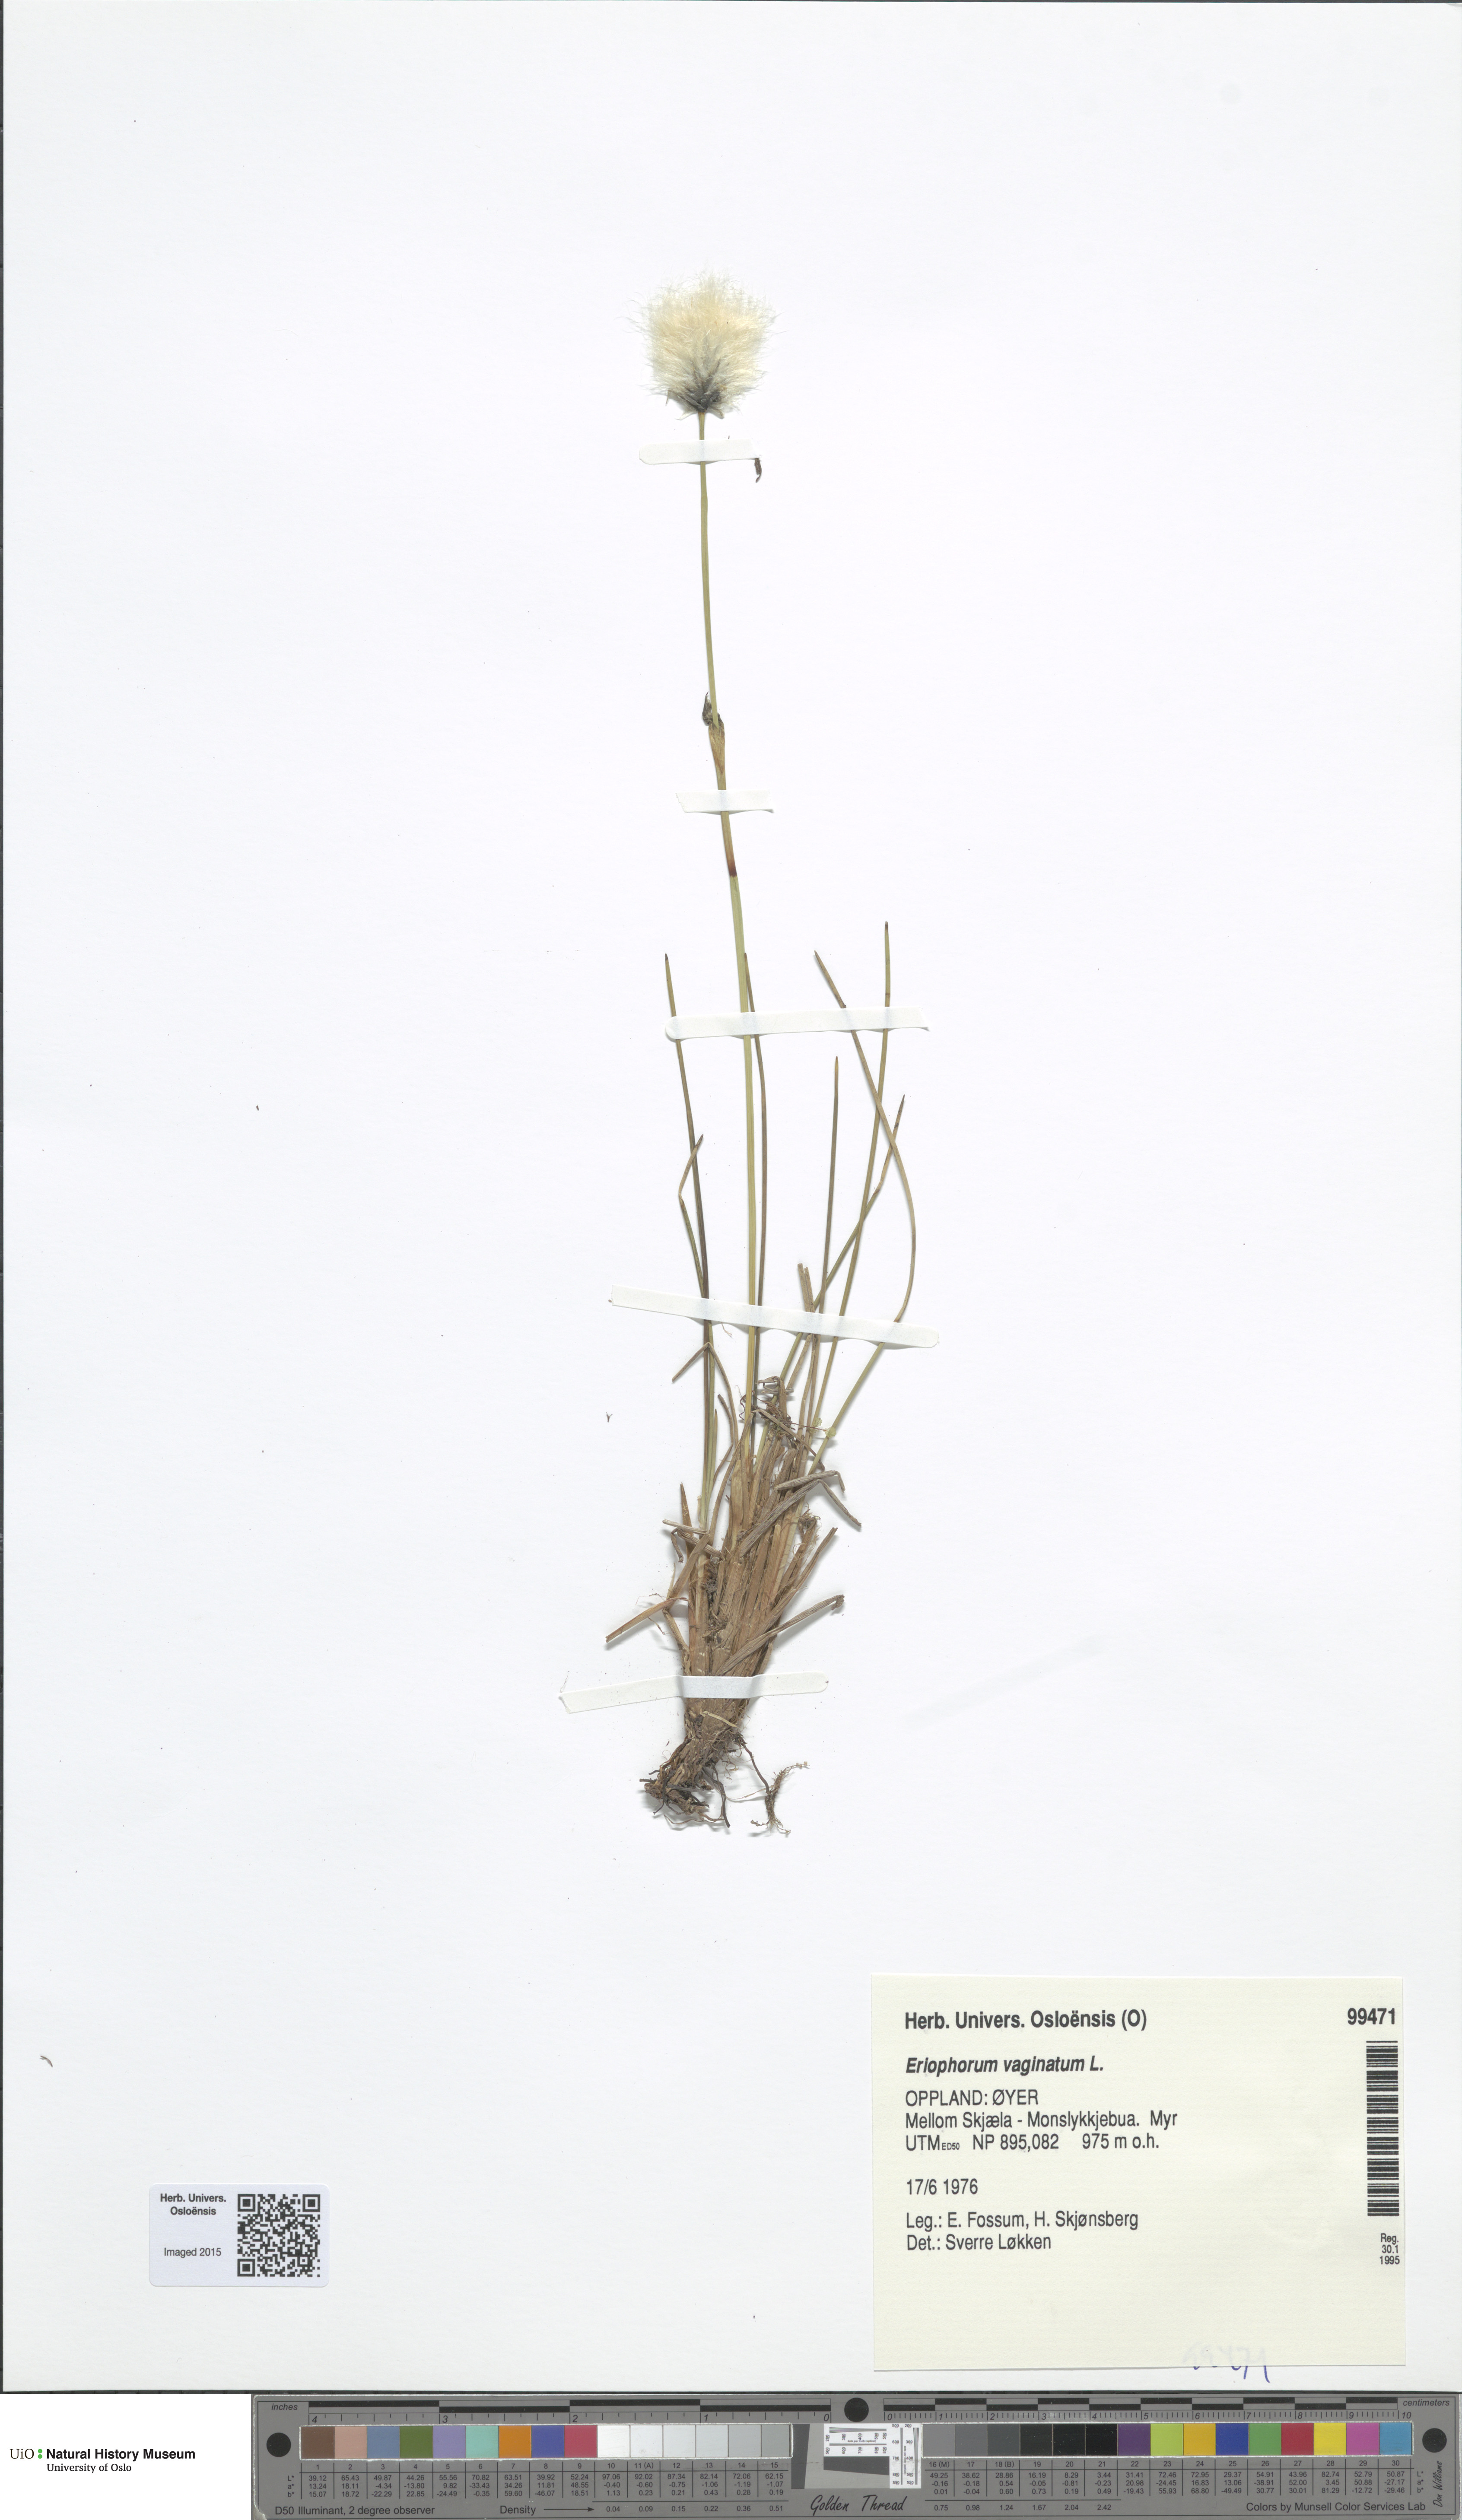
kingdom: Plantae
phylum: Tracheophyta
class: Liliopsida
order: Poales
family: Cyperaceae
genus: Eriophorum
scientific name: Eriophorum vaginatum
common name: Hare's-tail cottongrass
